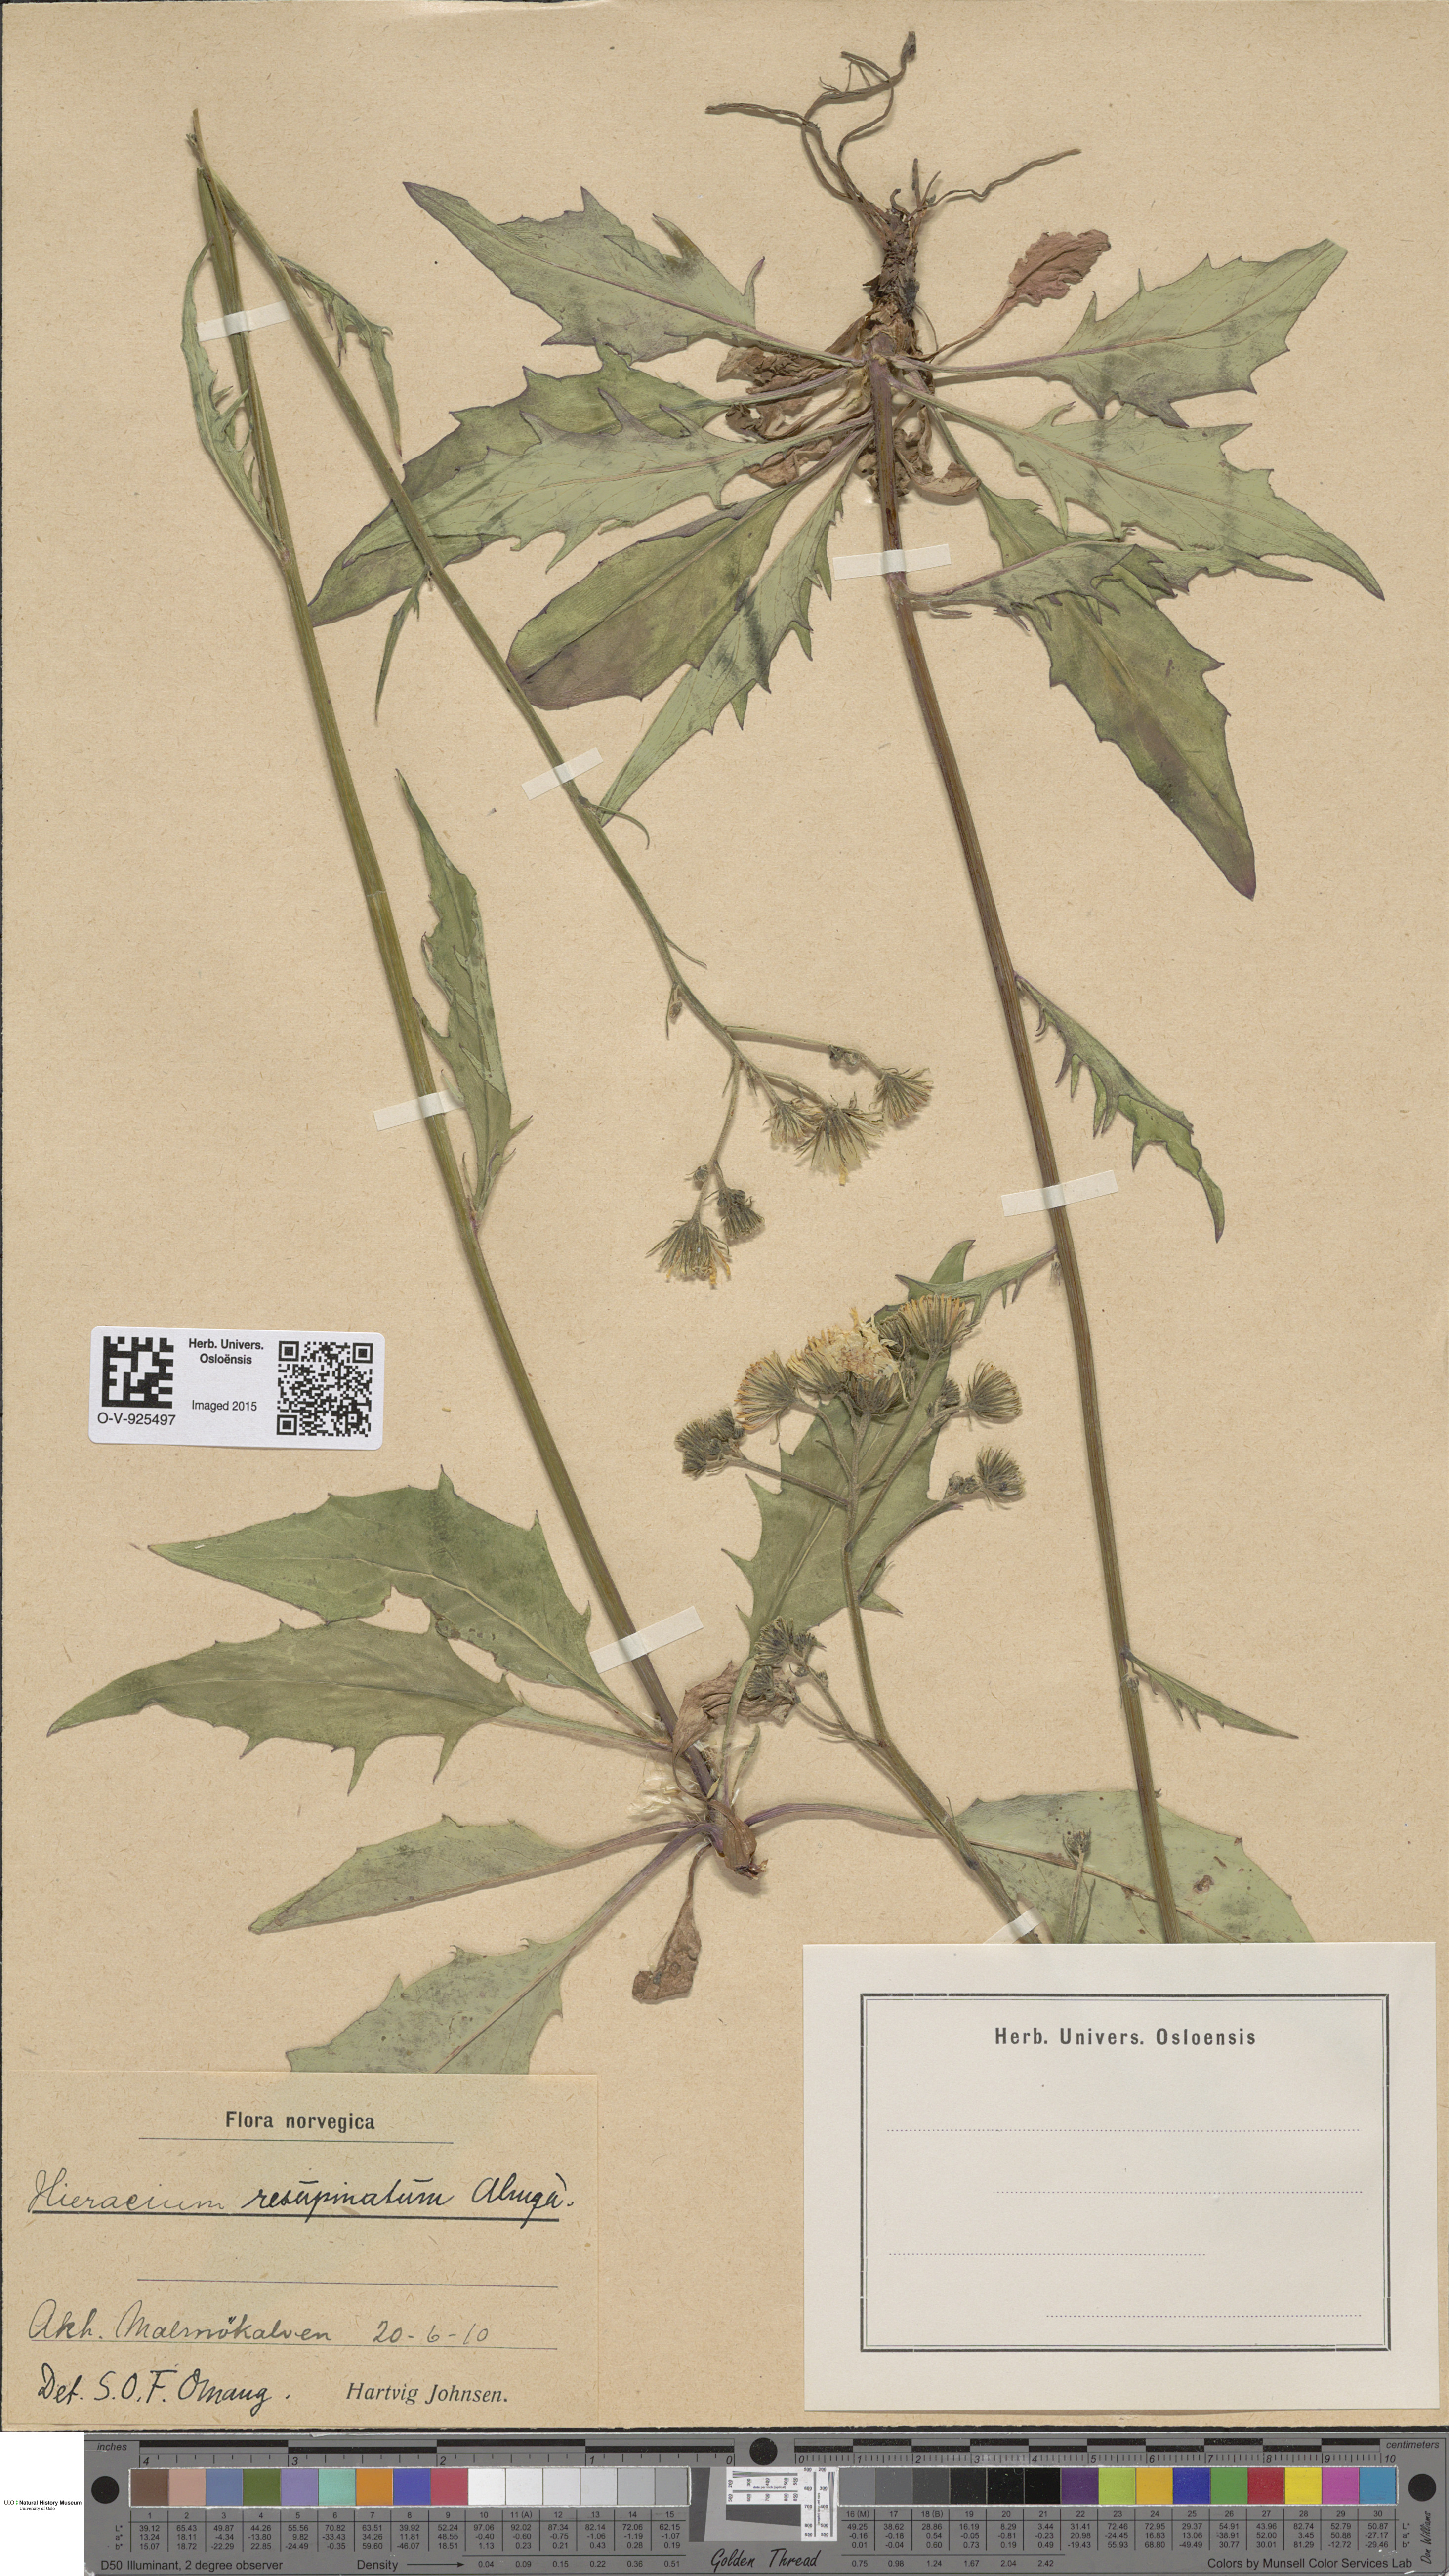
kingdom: Plantae
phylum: Tracheophyta
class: Magnoliopsida
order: Asterales
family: Asteraceae
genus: Hieracium
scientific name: Hieracium resupinatum
